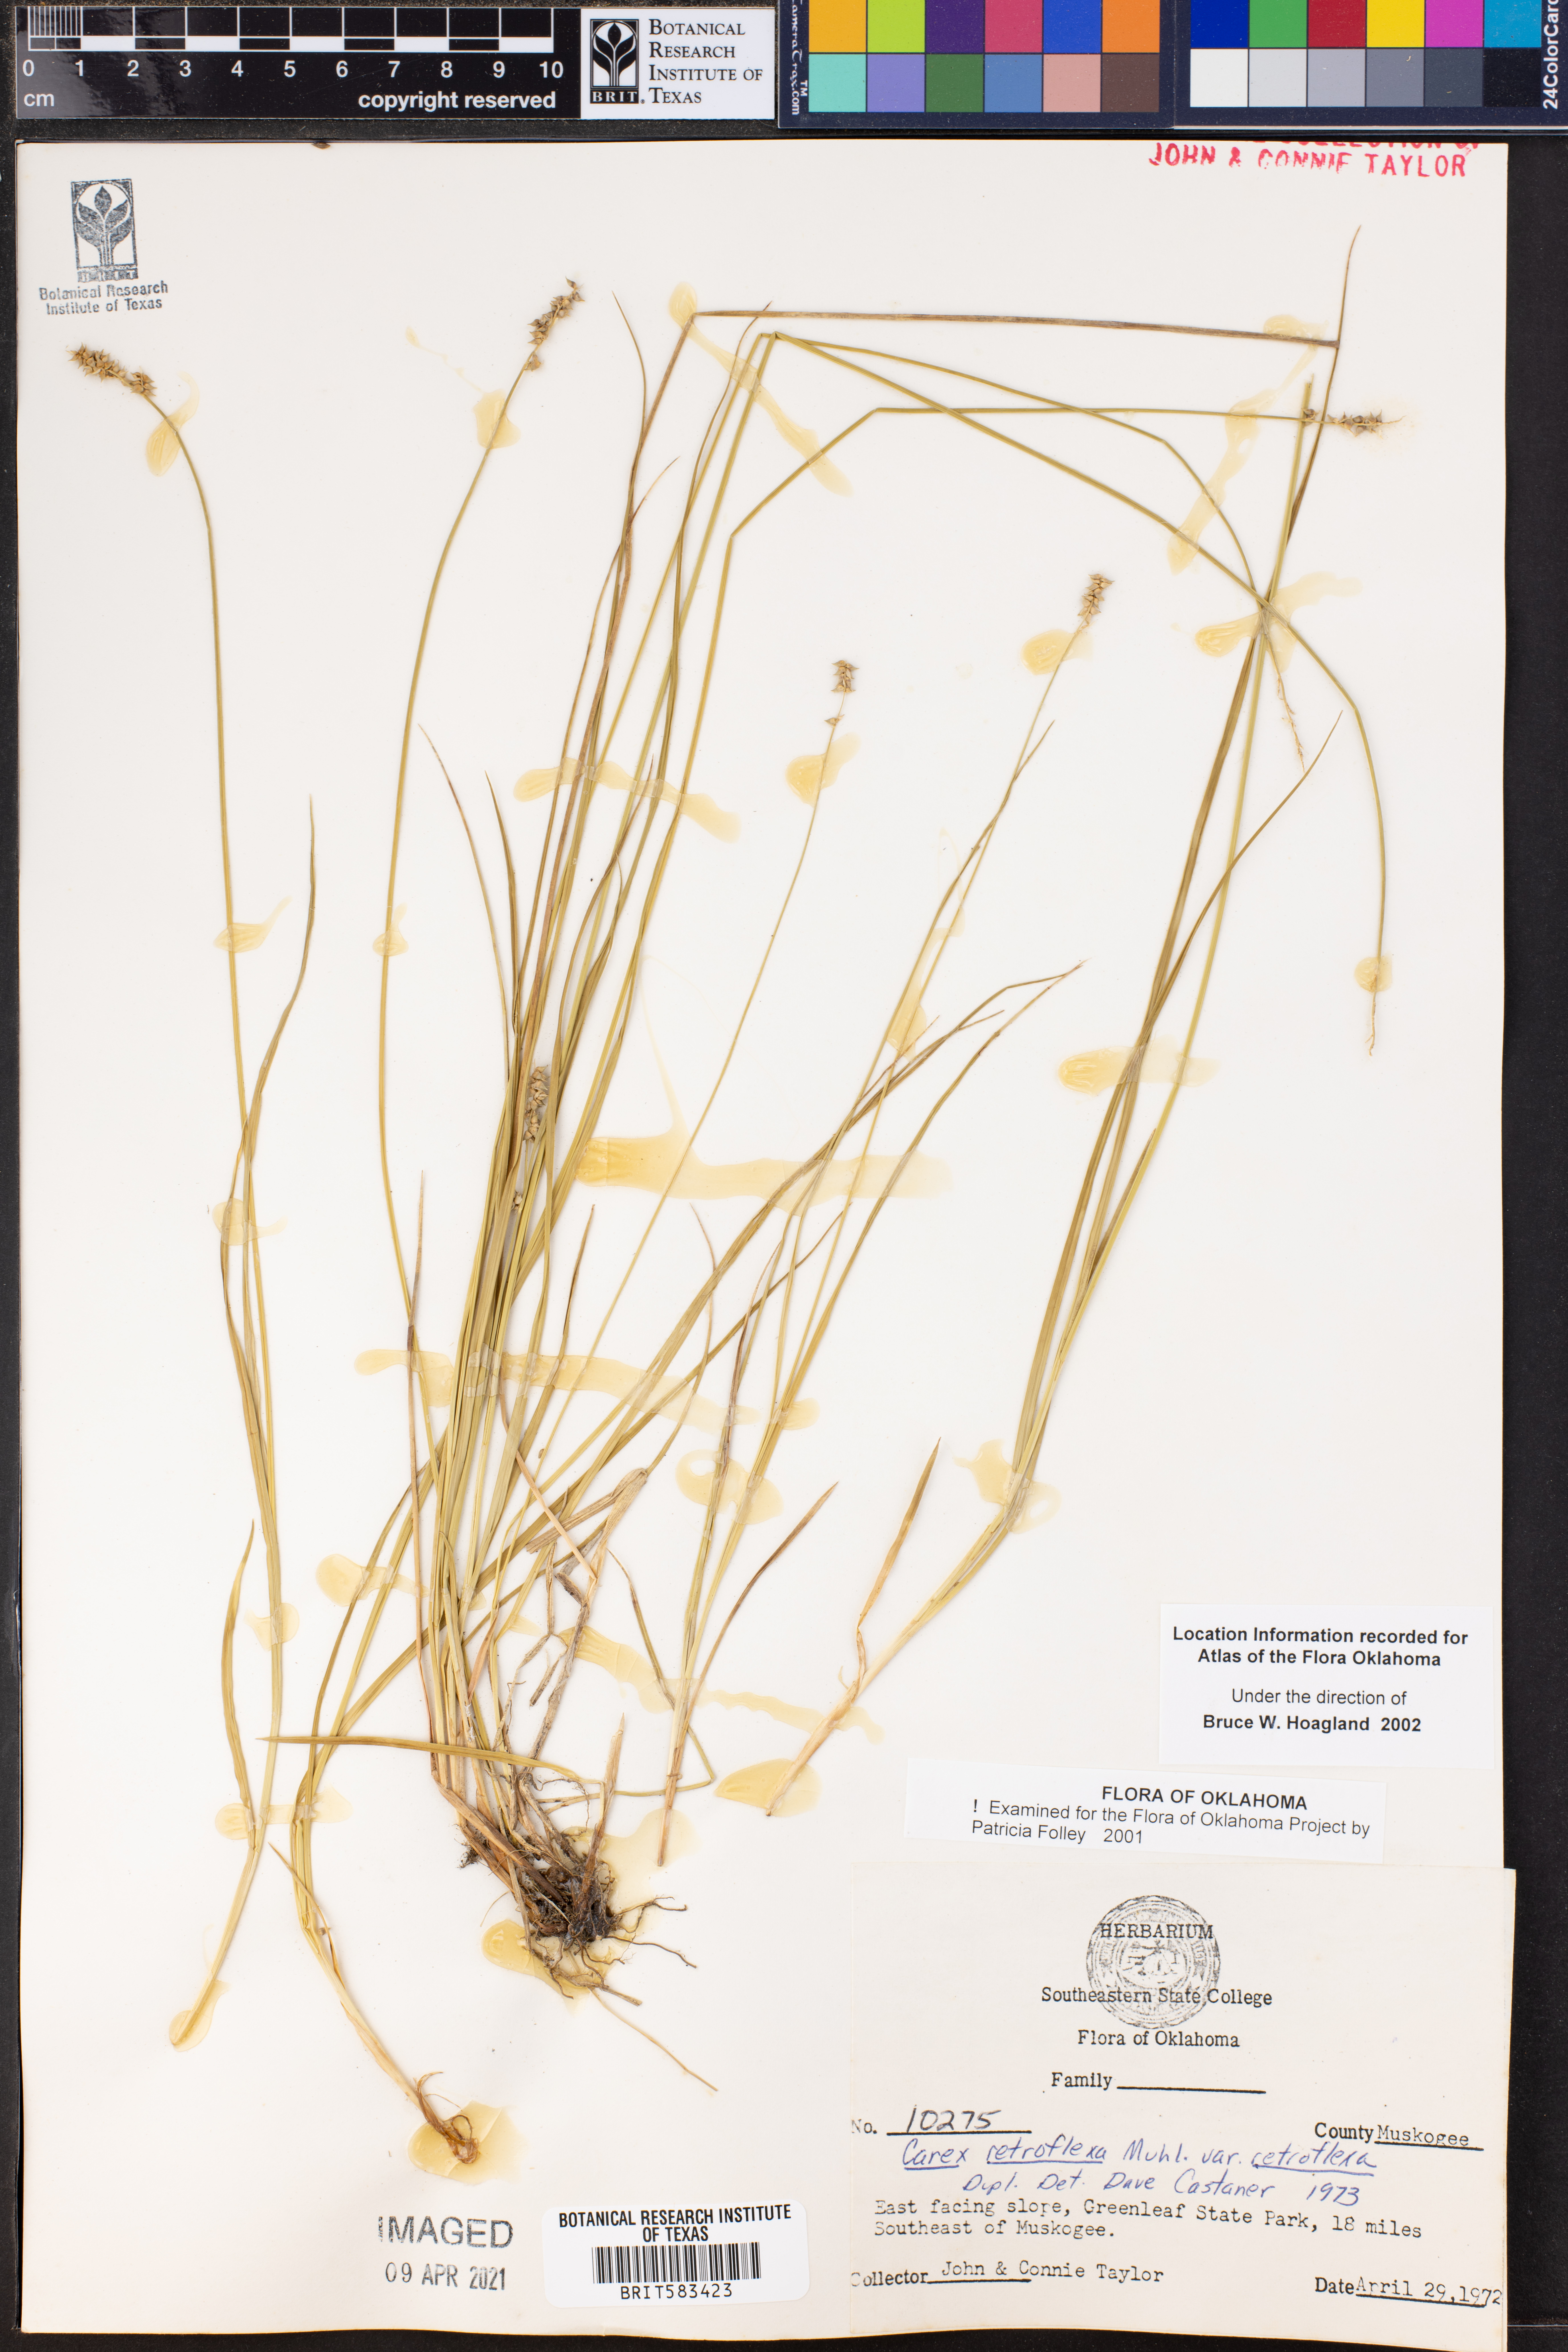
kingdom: Plantae
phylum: Tracheophyta
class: Liliopsida
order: Poales
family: Cyperaceae
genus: Carex
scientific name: Carex retroflexa
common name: Reflexed sedge
